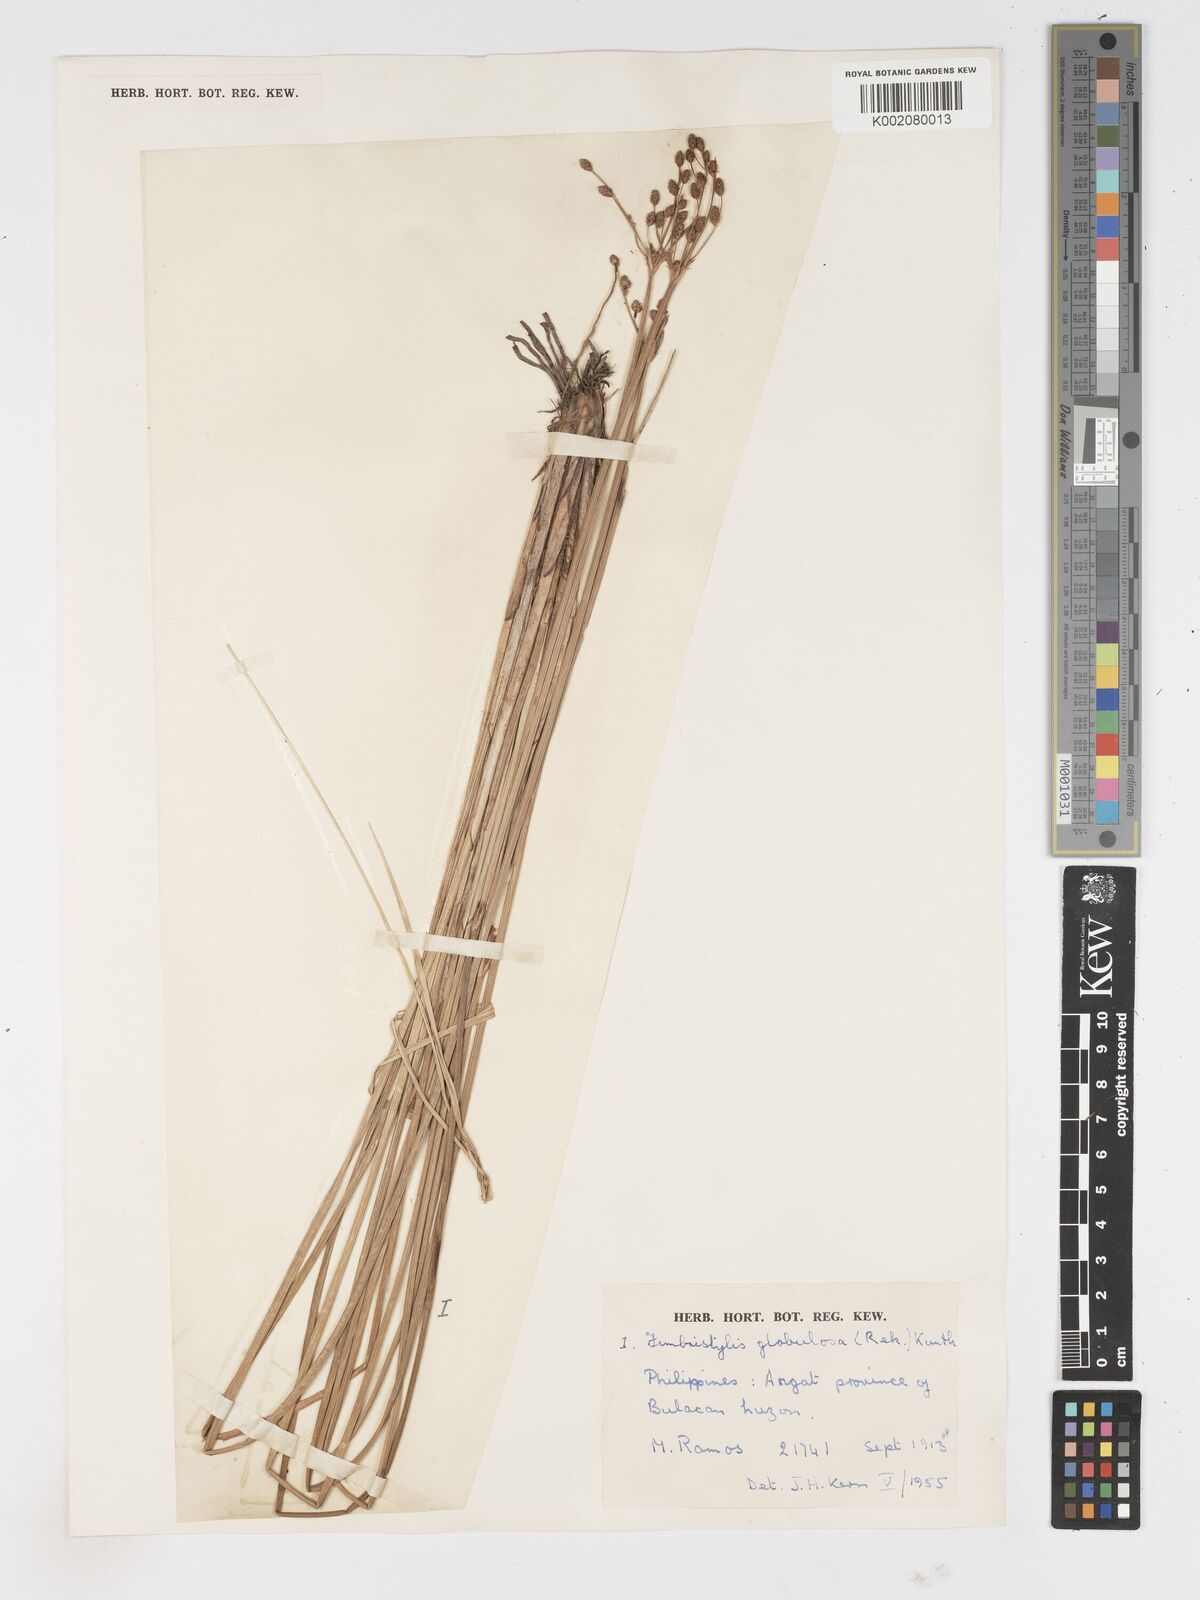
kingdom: Plantae
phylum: Tracheophyta
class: Liliopsida
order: Poales
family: Cyperaceae
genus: Fimbristylis
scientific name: Fimbristylis umbellaris
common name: Globular fimbristylis
